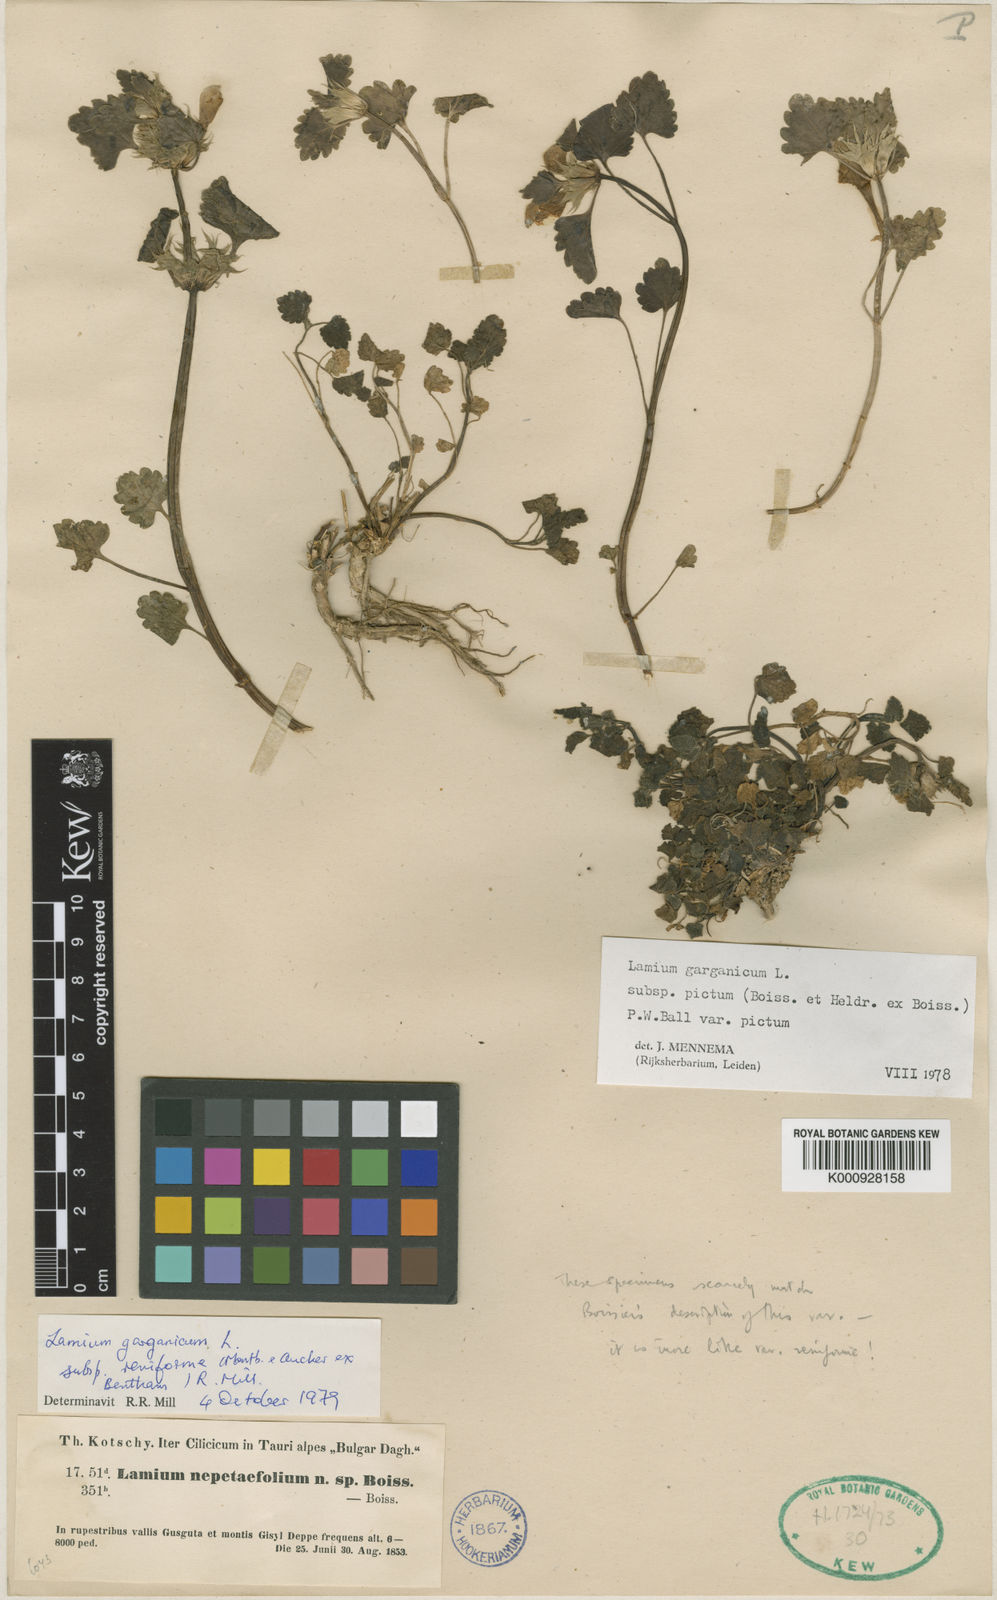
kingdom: Plantae
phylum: Tracheophyta
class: Magnoliopsida
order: Lamiales
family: Lamiaceae
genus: Lamium
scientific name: Lamium garganicum
